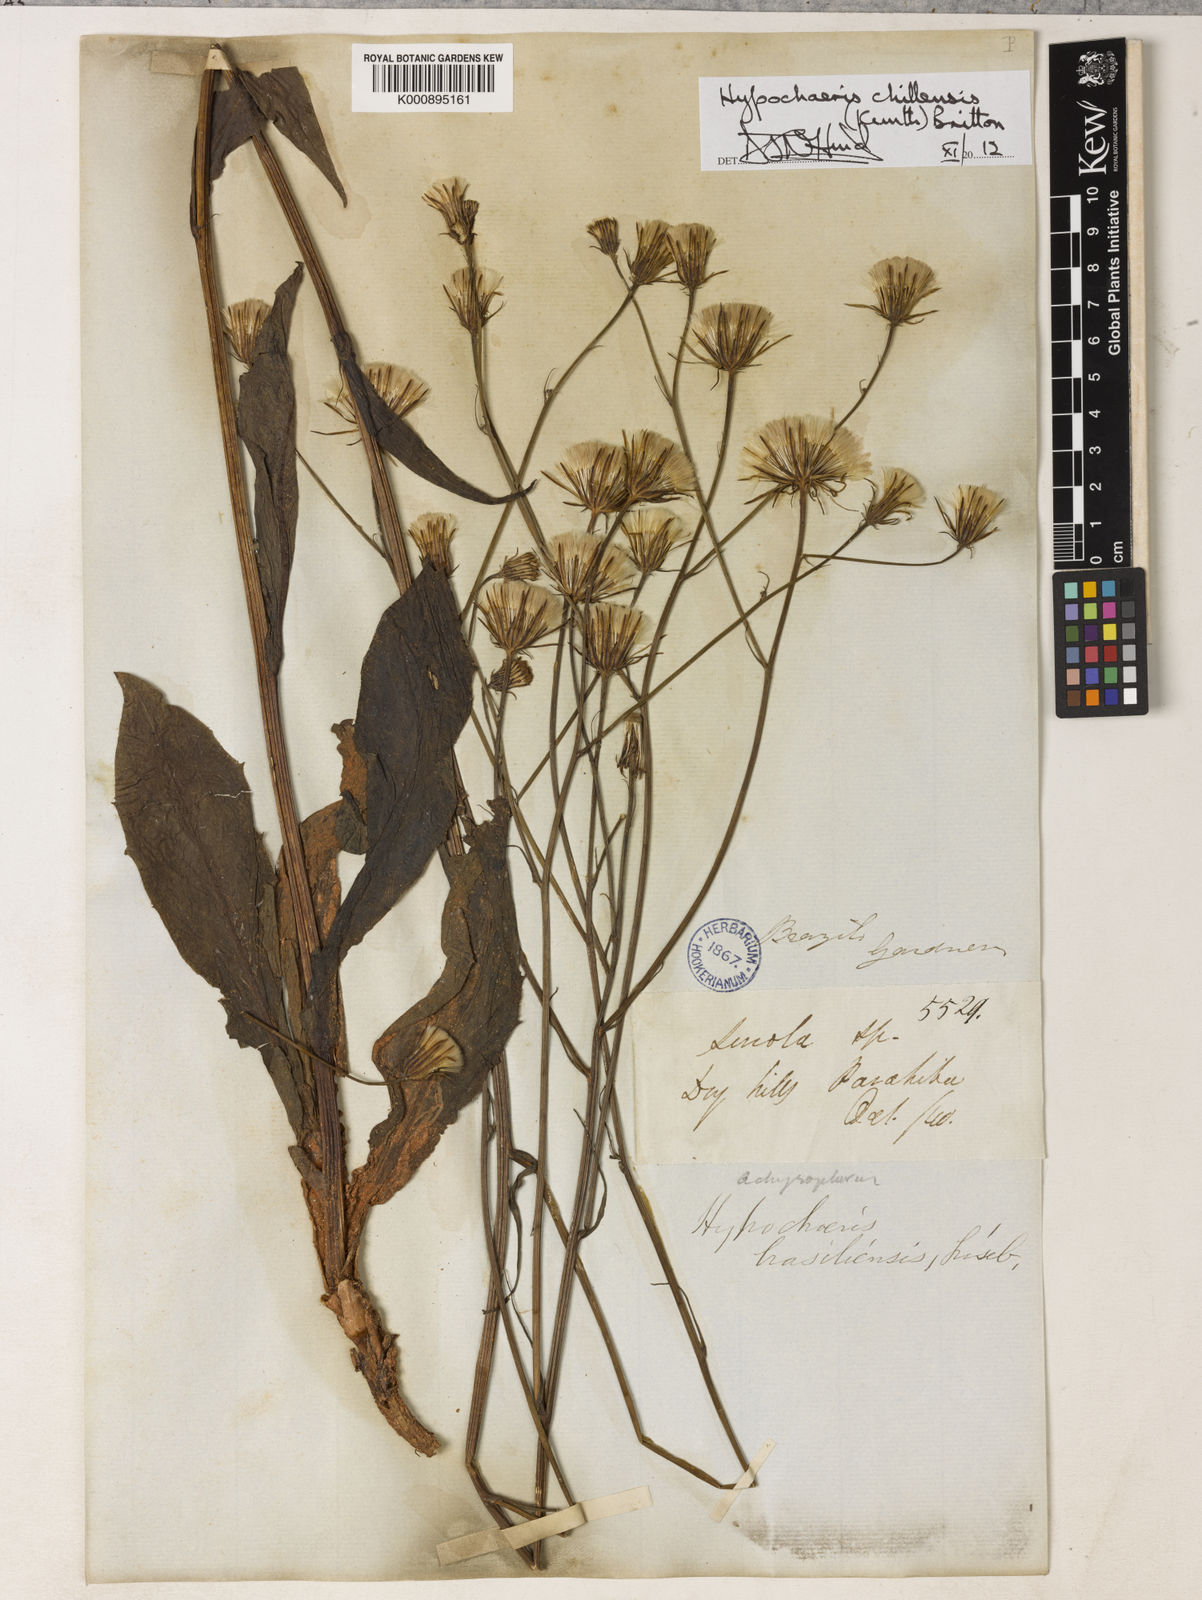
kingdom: Plantae
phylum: Tracheophyta
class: Magnoliopsida
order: Asterales
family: Asteraceae
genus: Hypochaeris
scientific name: Hypochaeris chillensis
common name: Brazilian cat's ear
